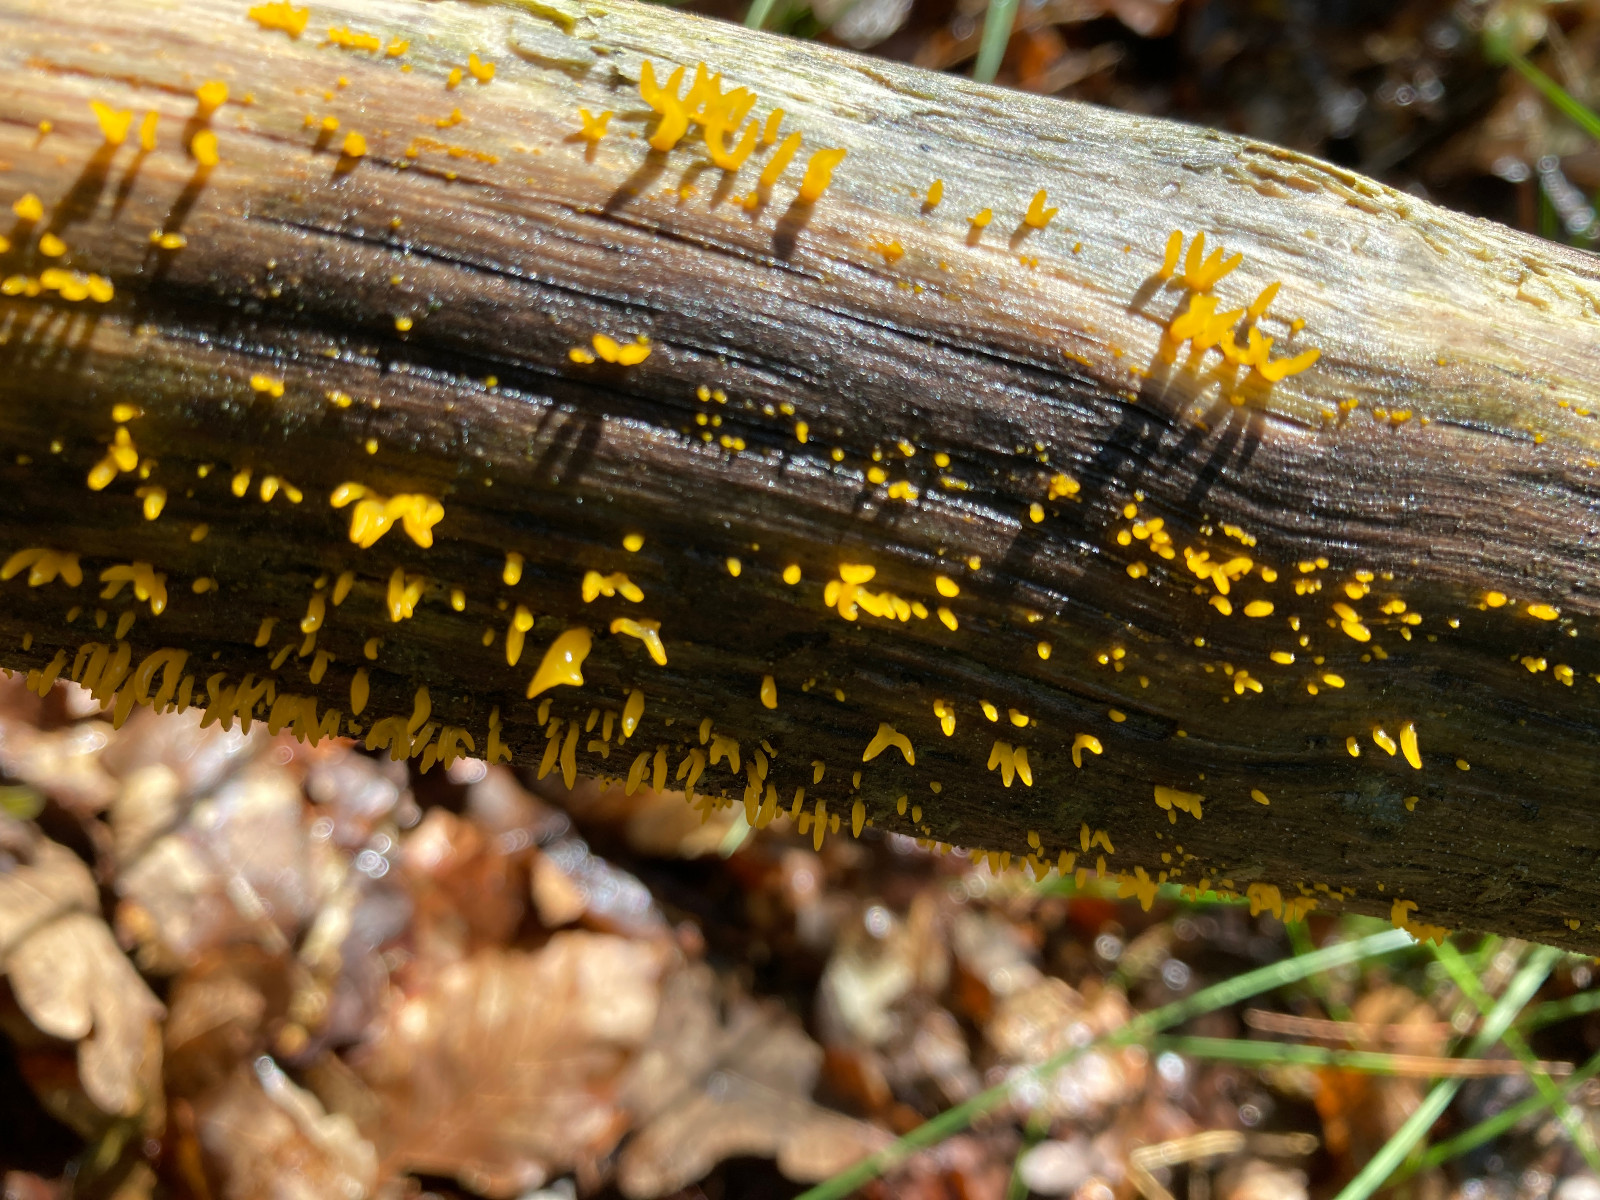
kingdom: Fungi
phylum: Basidiomycota
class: Dacrymycetes
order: Dacrymycetales
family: Dacrymycetaceae
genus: Calocera
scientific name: Calocera cornea
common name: liden guldgaffel
